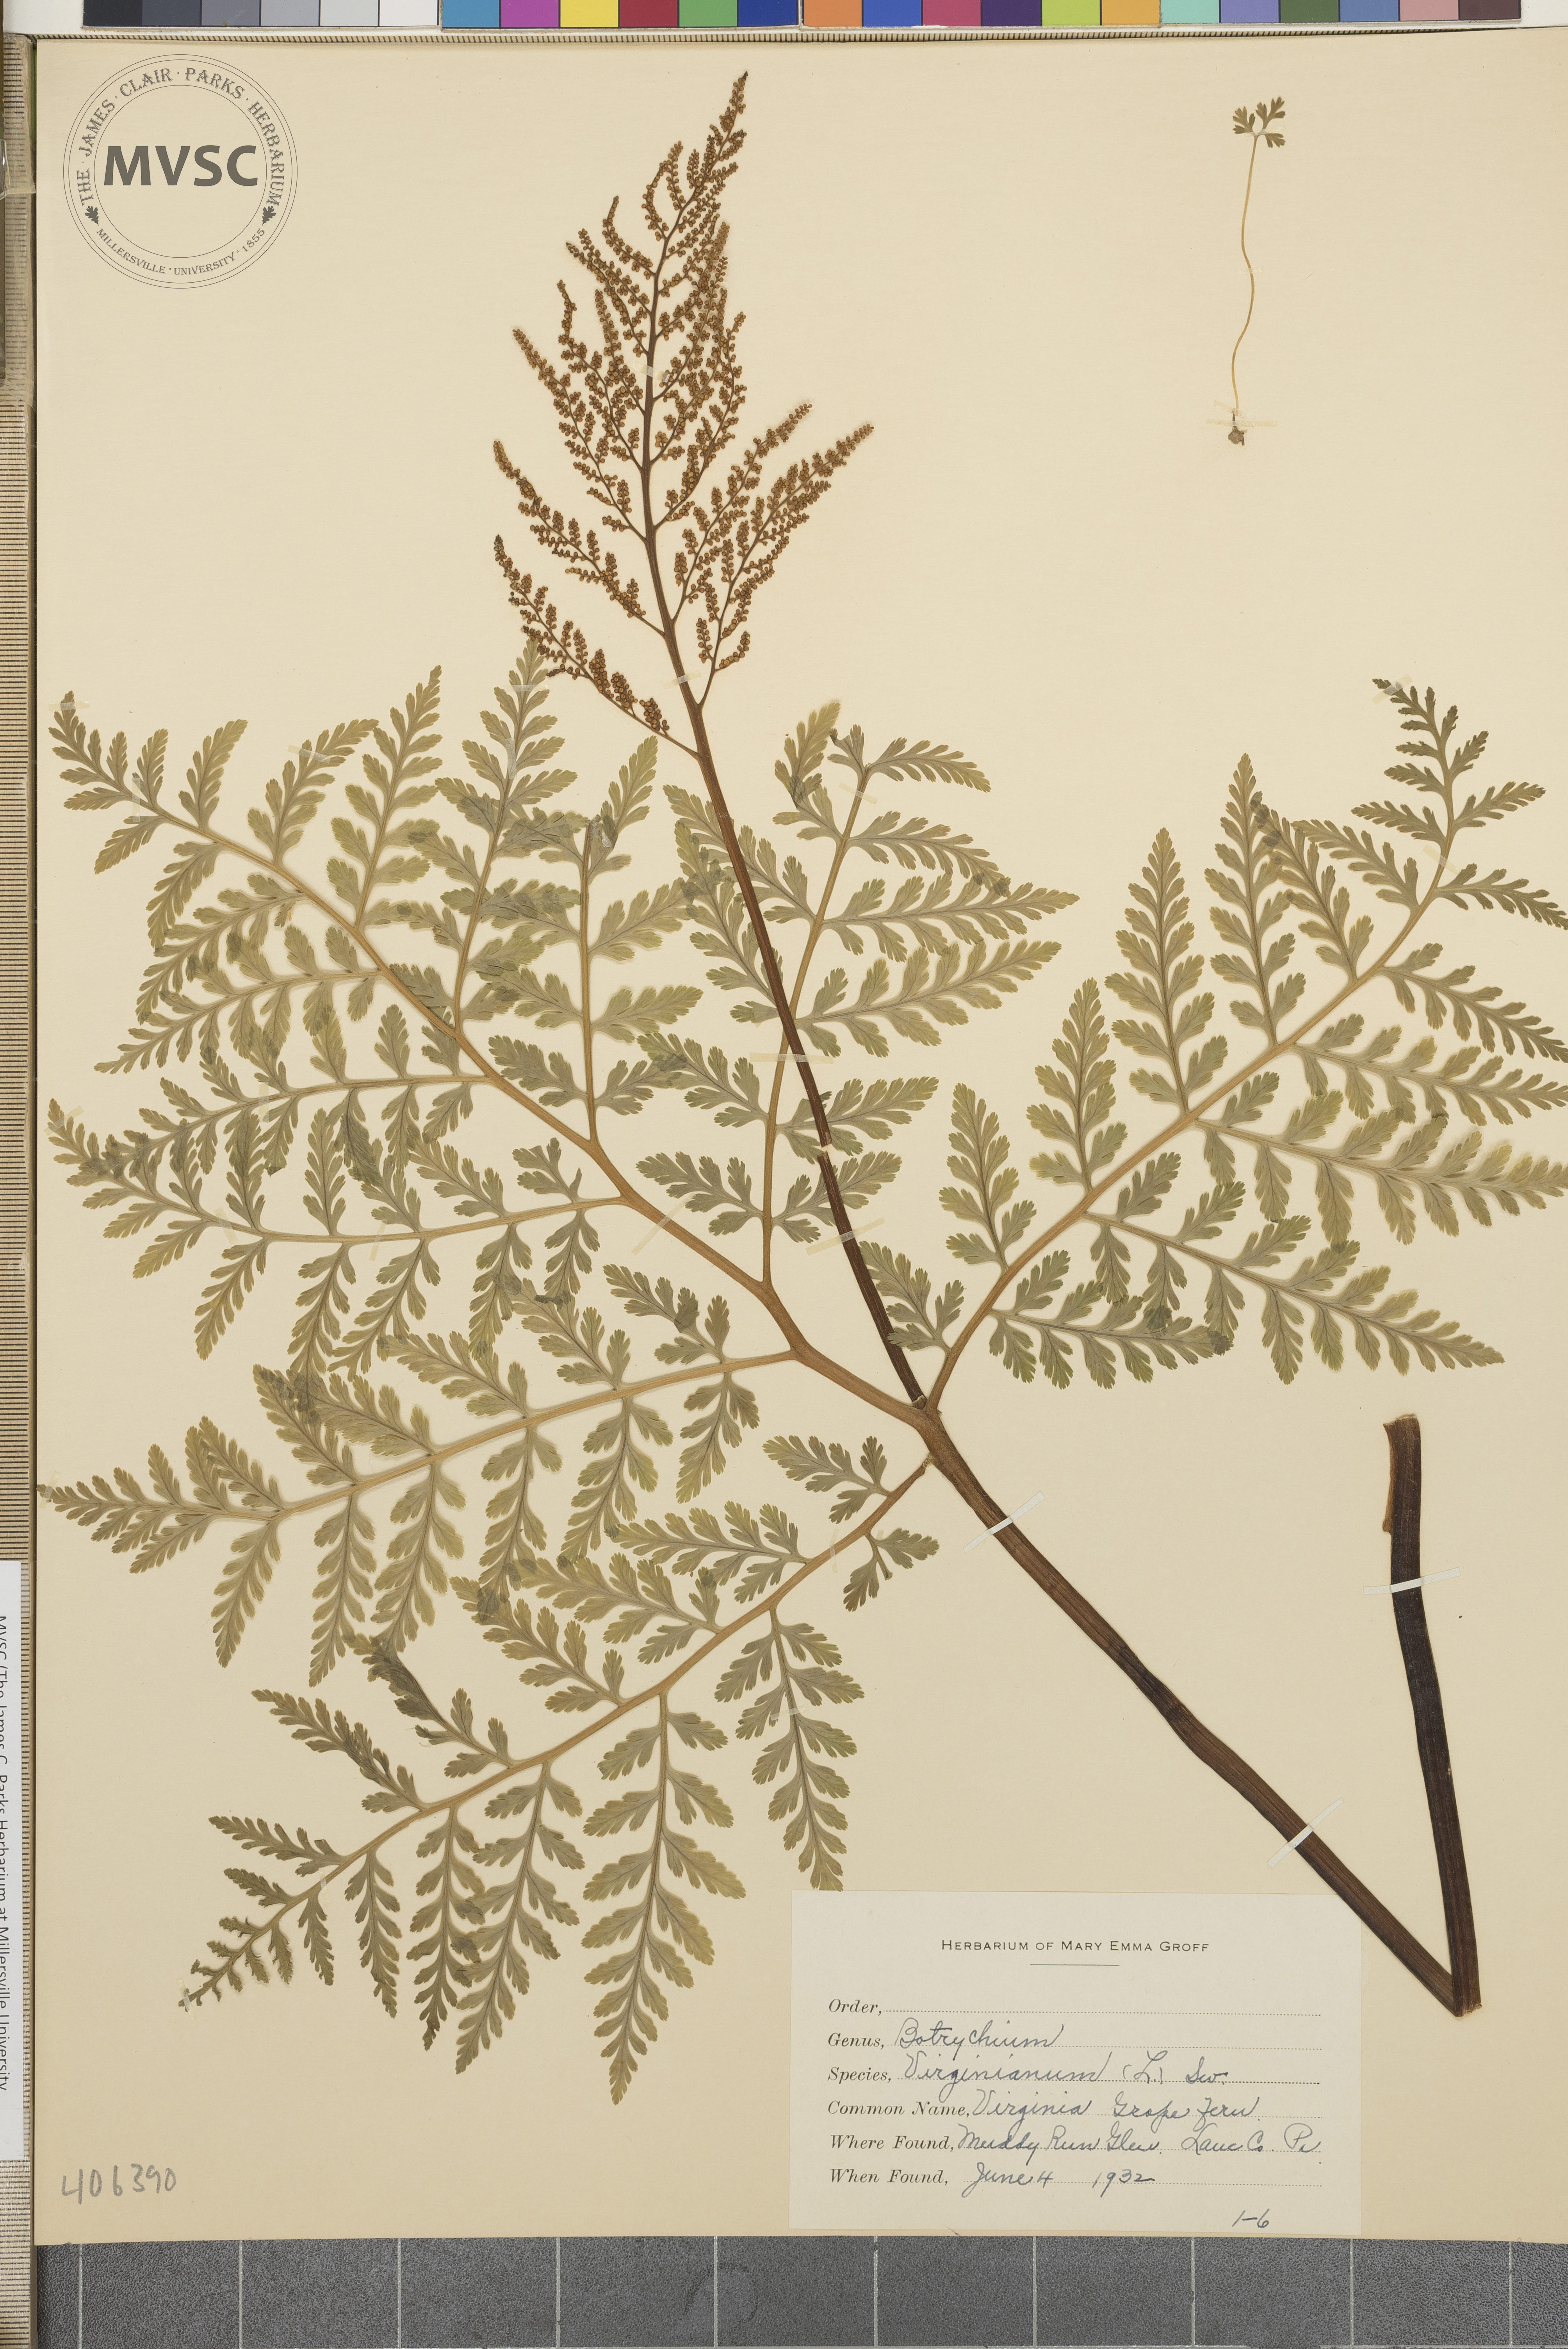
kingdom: Plantae
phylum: Tracheophyta
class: Polypodiopsida
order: Ophioglossales
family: Ophioglossaceae
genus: Botrychium
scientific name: Botrychium virginianum
